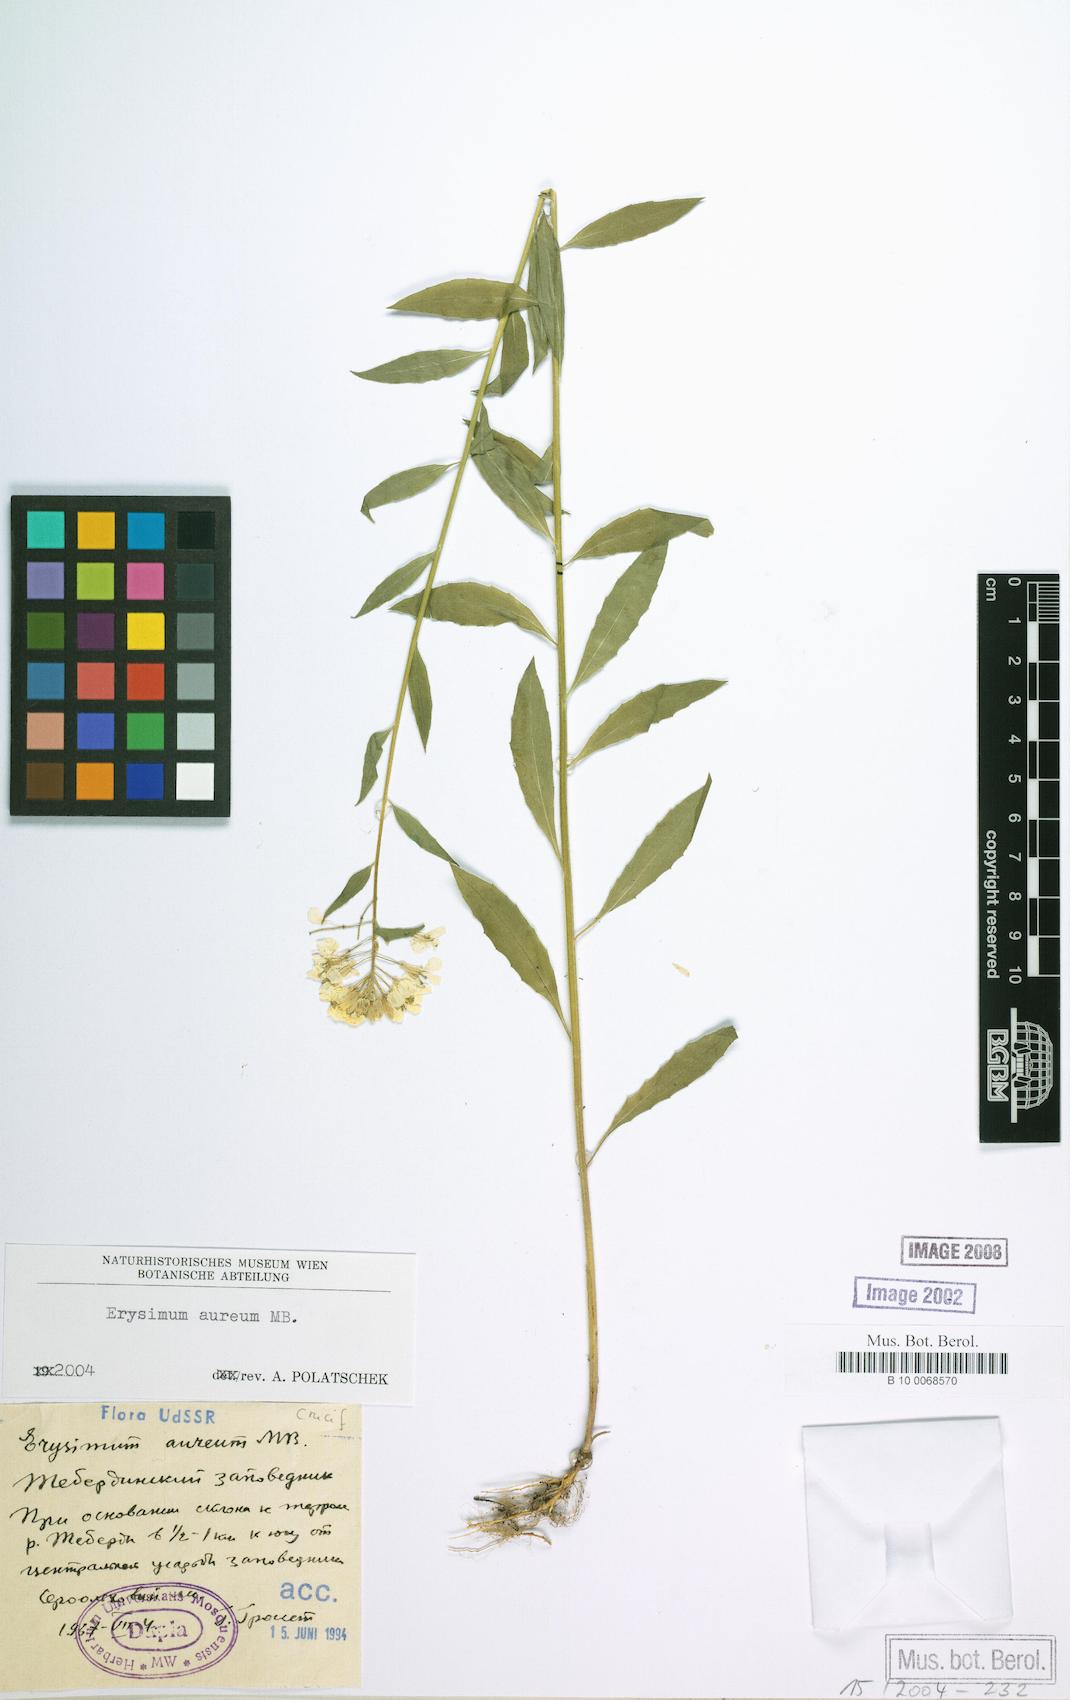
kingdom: Plantae
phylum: Tracheophyta
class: Magnoliopsida
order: Brassicales
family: Brassicaceae
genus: Erysimum
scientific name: Erysimum aureum
